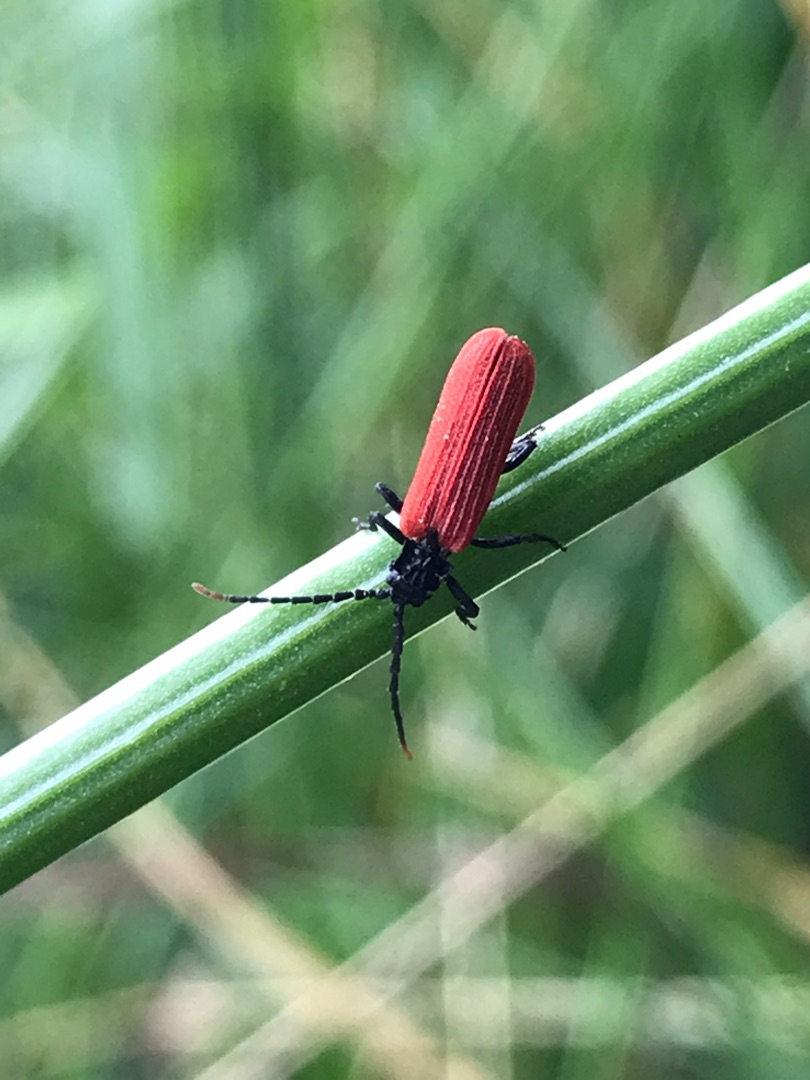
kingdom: Animalia
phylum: Arthropoda
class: Insecta
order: Coleoptera
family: Lycidae
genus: Platycis
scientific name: Platycis minutus
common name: Lille maskebille
